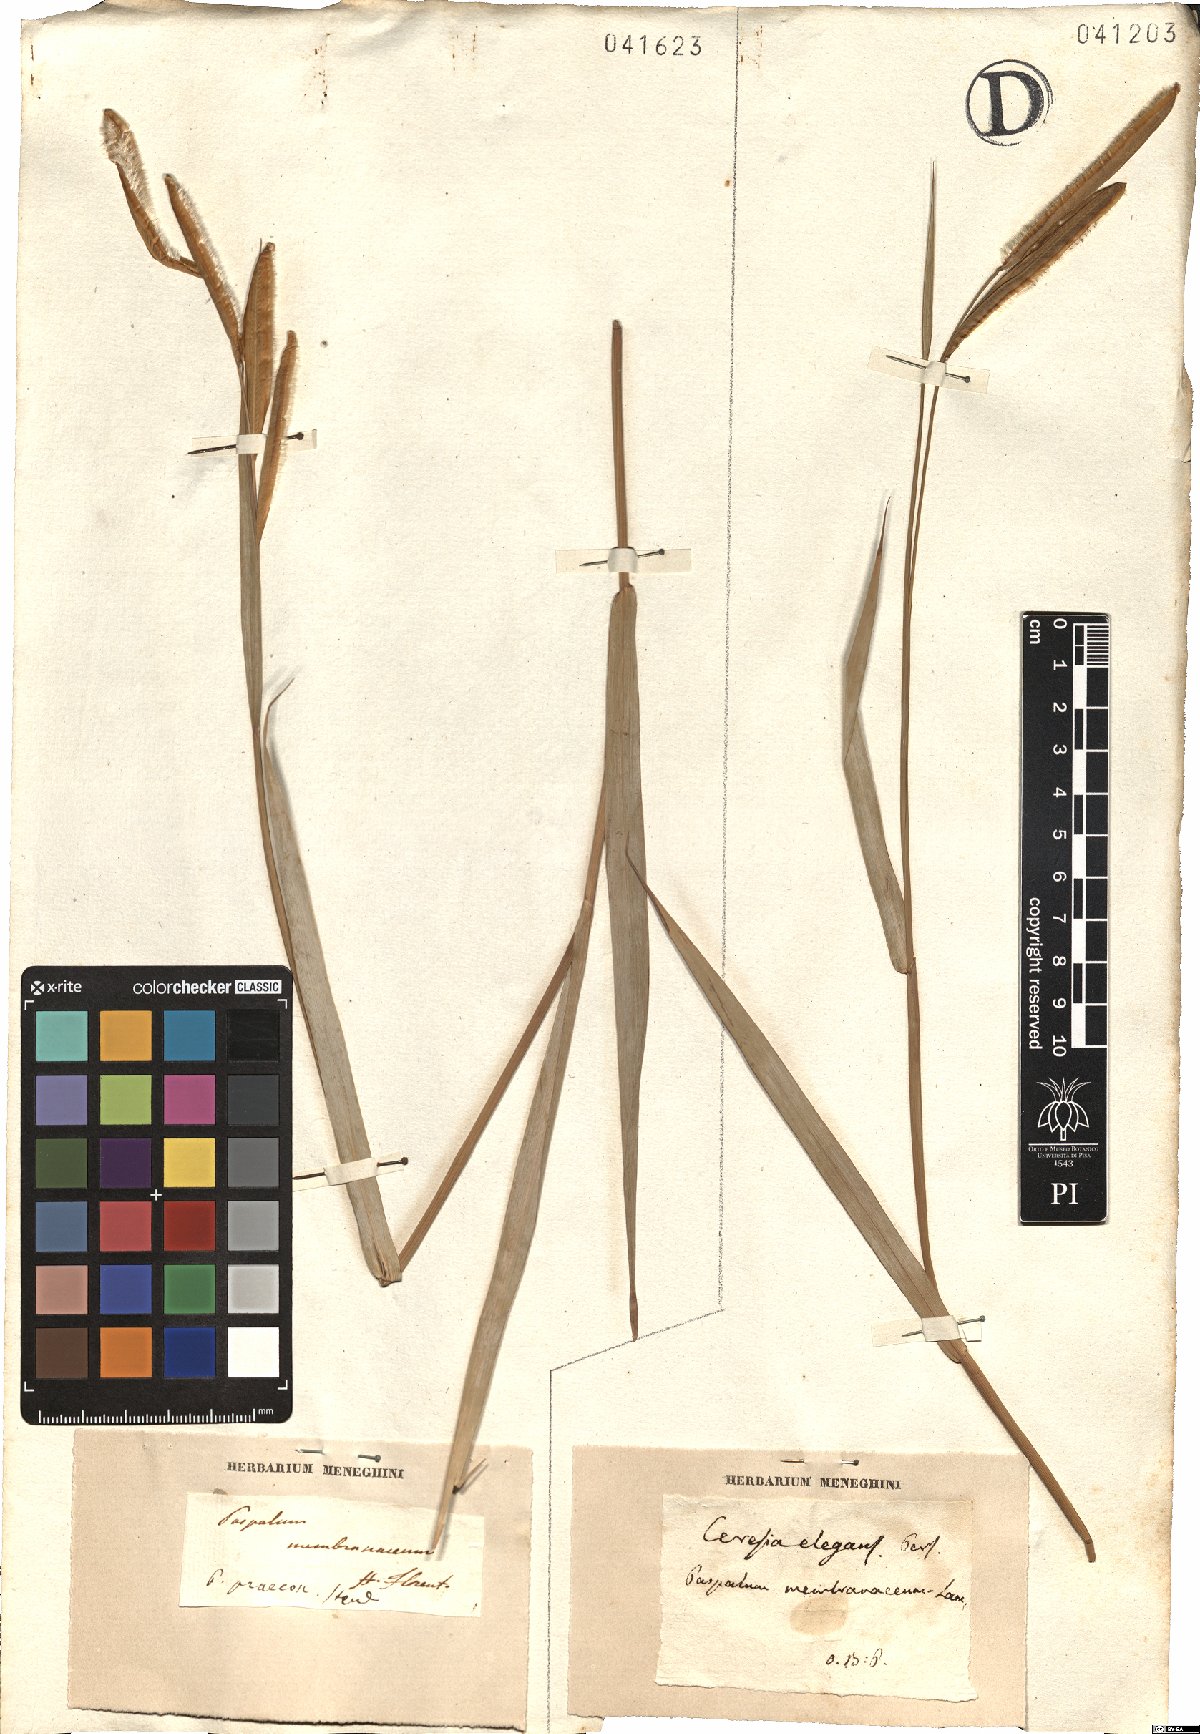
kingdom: Plantae
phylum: Tracheophyta
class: Liliopsida
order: Poales
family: Poaceae
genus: Paspalum
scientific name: Paspalum ceresia
